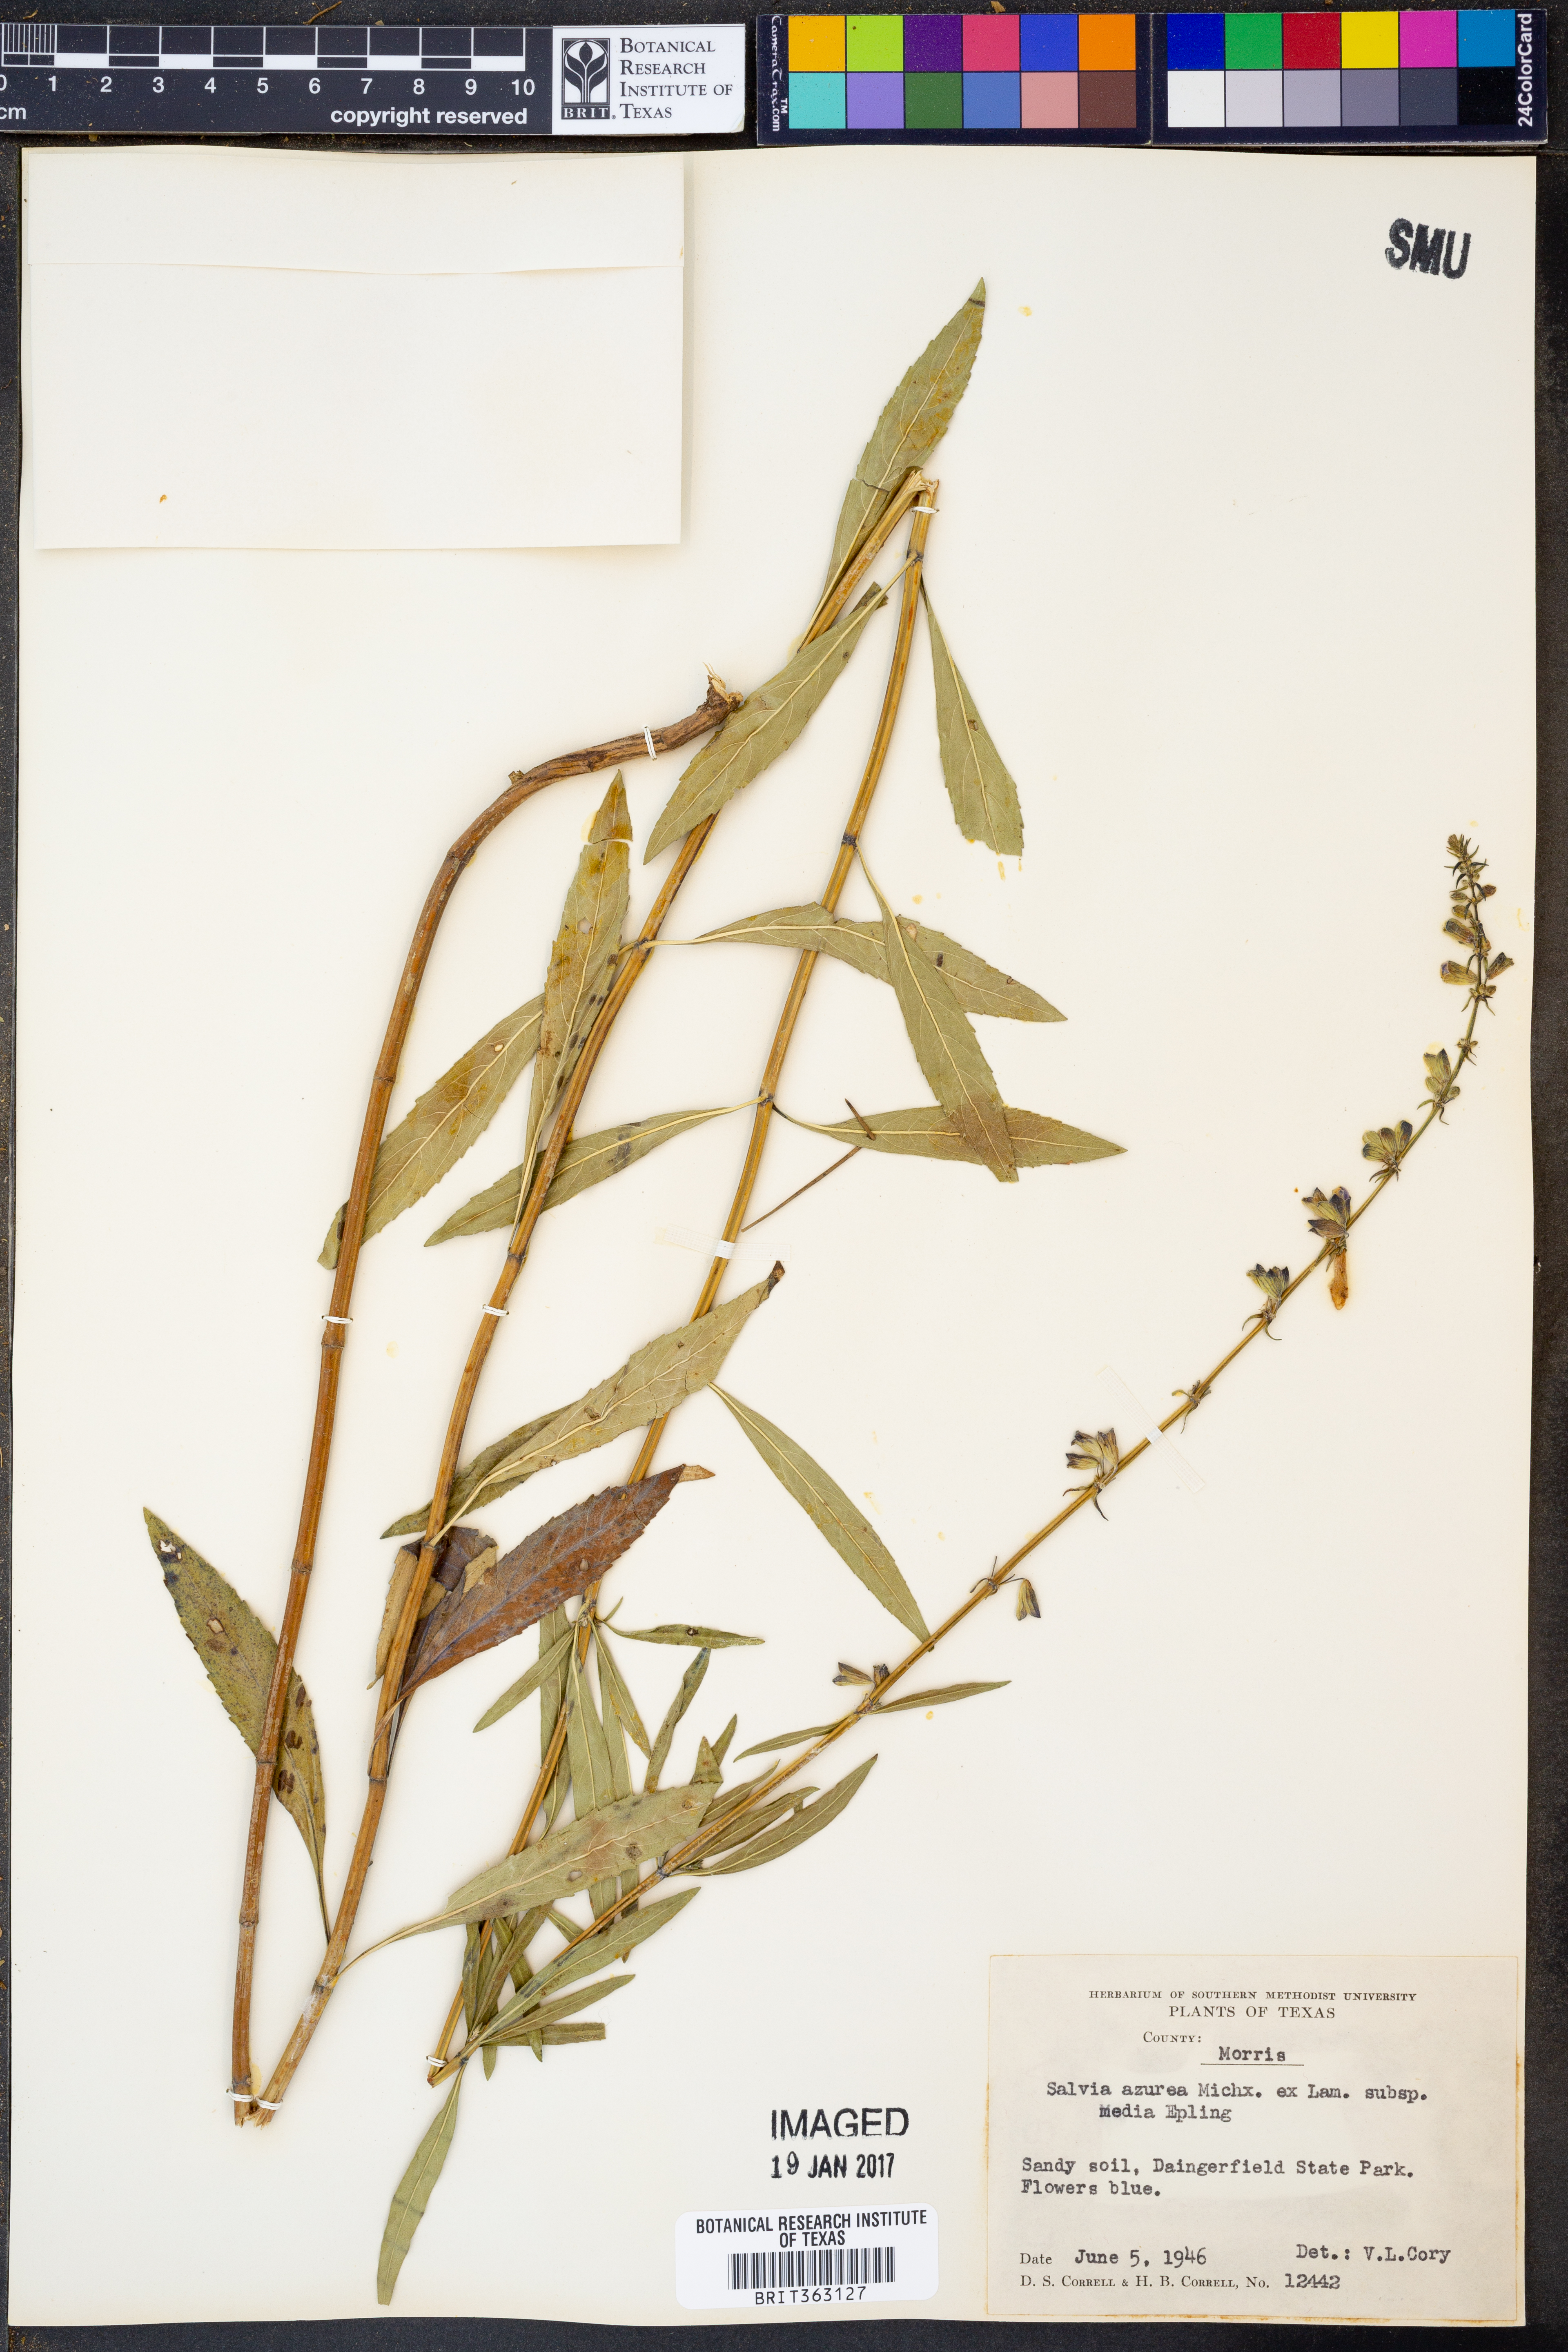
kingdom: Plantae
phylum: Tracheophyta
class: Magnoliopsida
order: Lamiales
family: Lamiaceae
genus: Salvia
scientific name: Salvia azurea
